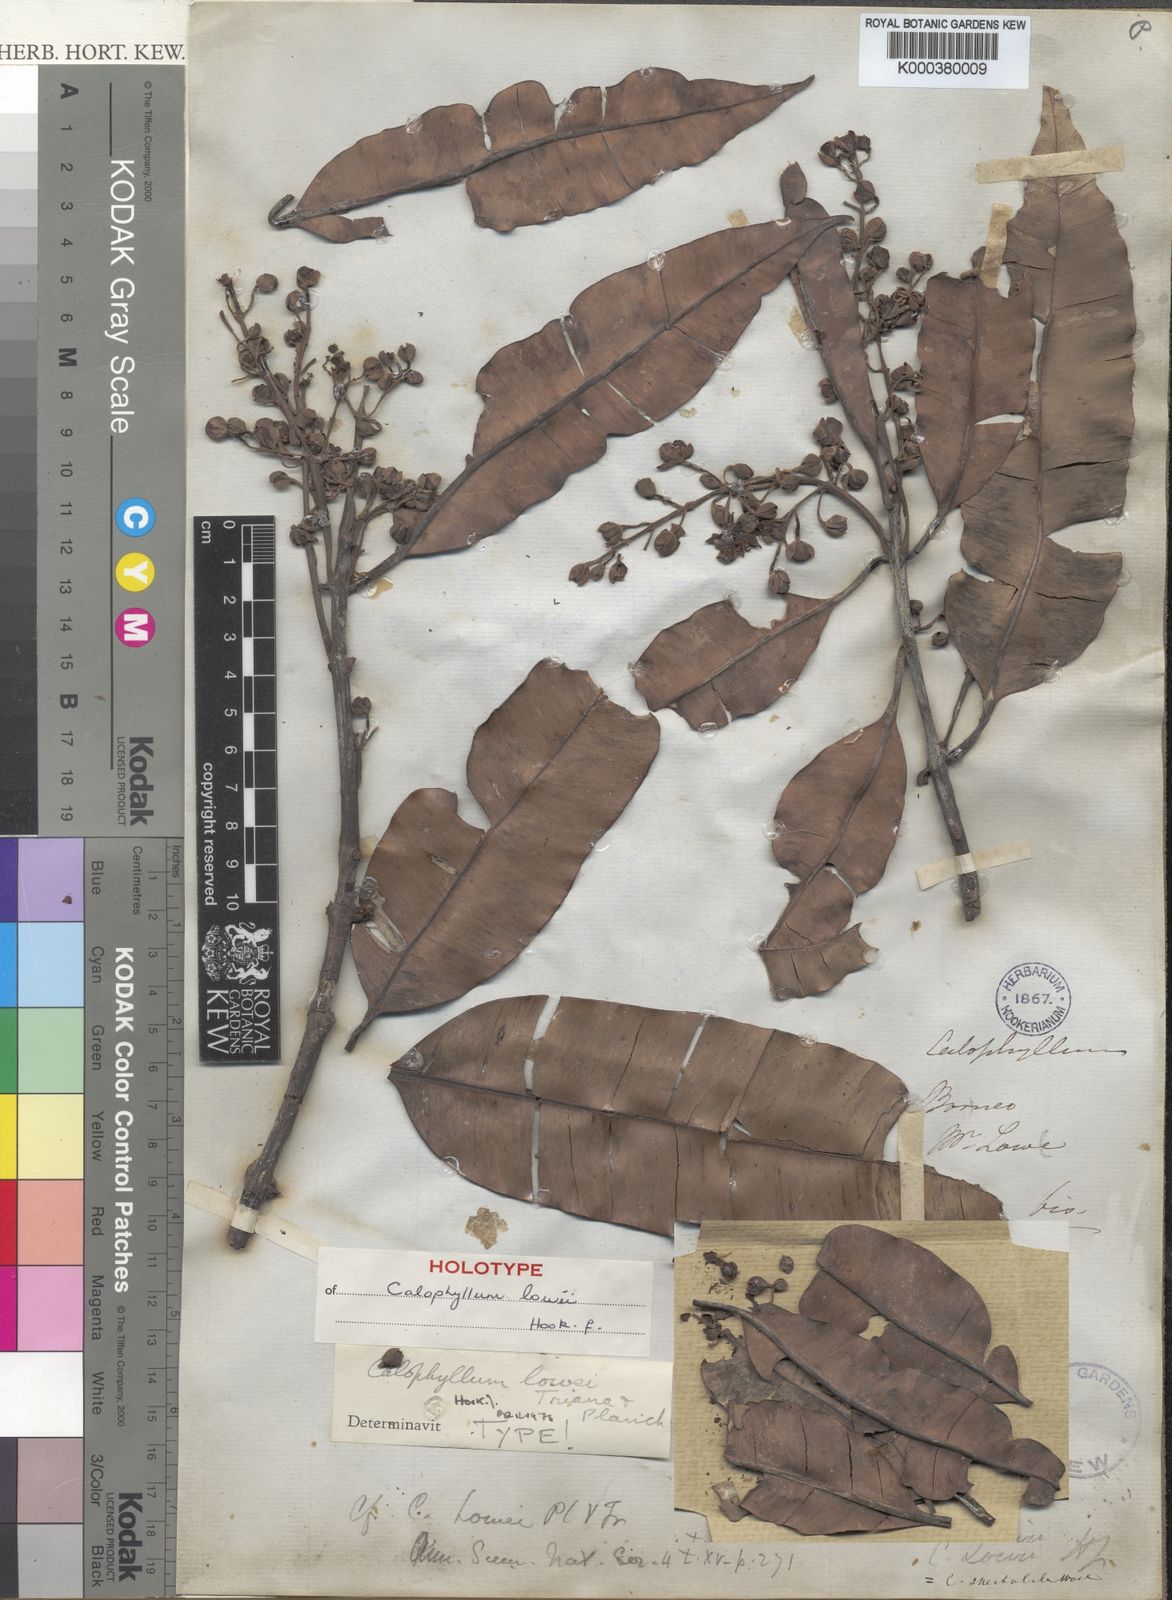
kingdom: Plantae
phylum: Tracheophyta
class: Magnoliopsida
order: Malpighiales
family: Calophyllaceae
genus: Calophyllum
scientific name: Calophyllum lowei
